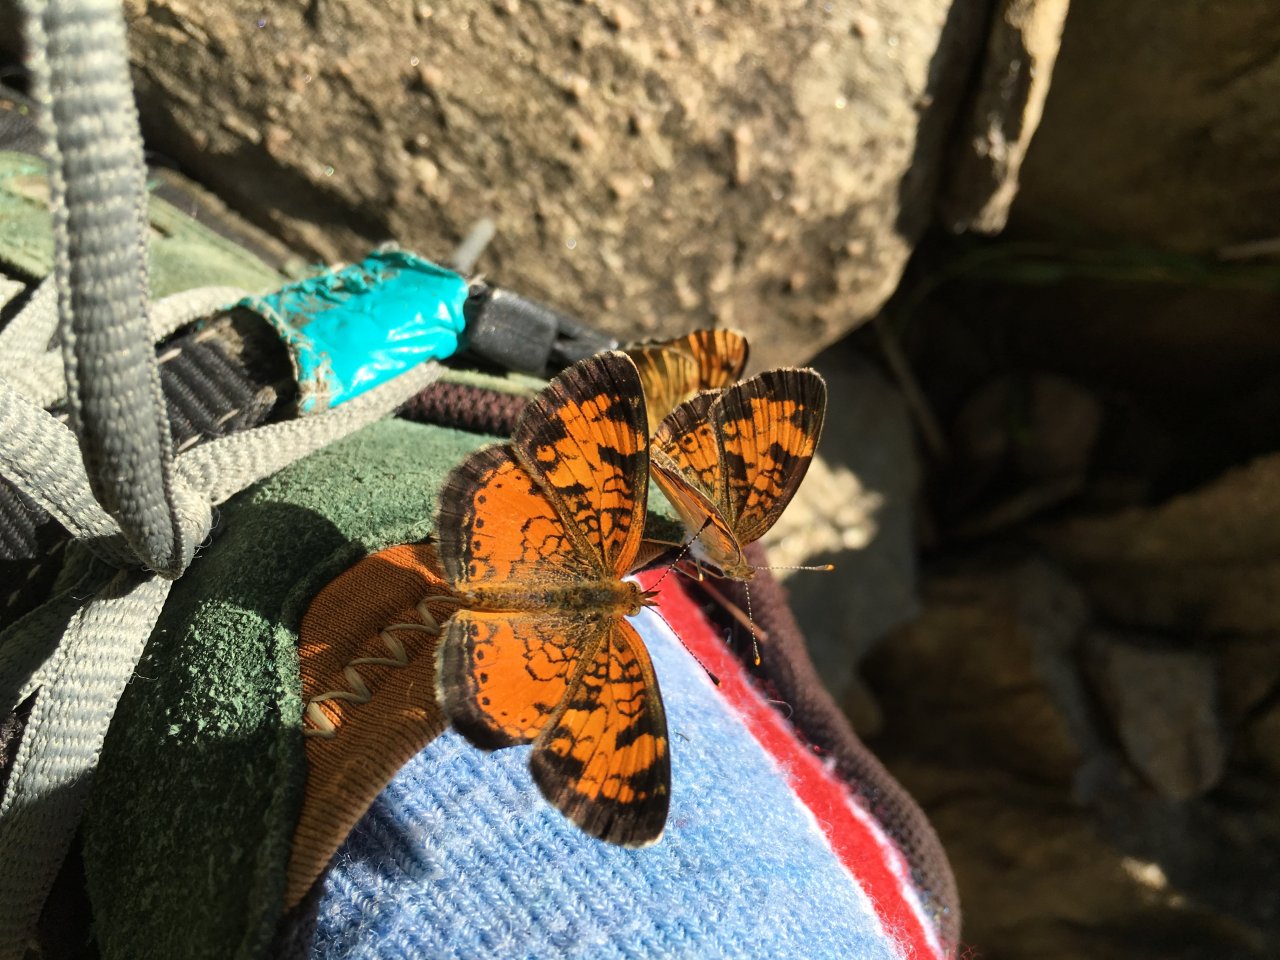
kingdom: Animalia
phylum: Arthropoda
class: Insecta
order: Lepidoptera
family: Nymphalidae
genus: Phyciodes
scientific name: Phyciodes tharos
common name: Northern Crescent
